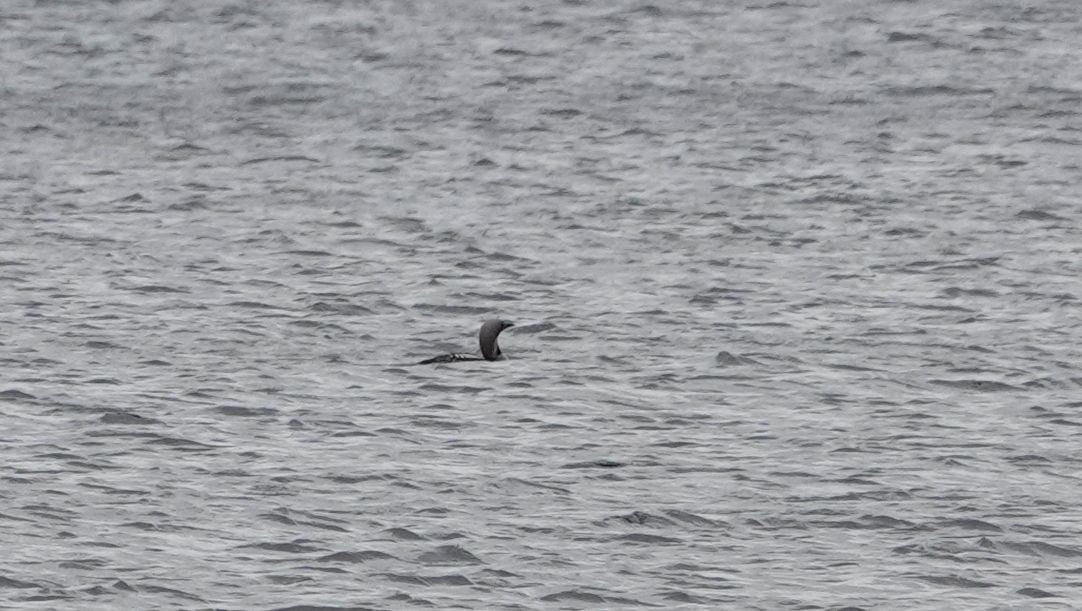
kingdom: Animalia
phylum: Chordata
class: Aves
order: Gaviiformes
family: Gaviidae
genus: Gavia
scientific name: Gavia arctica
